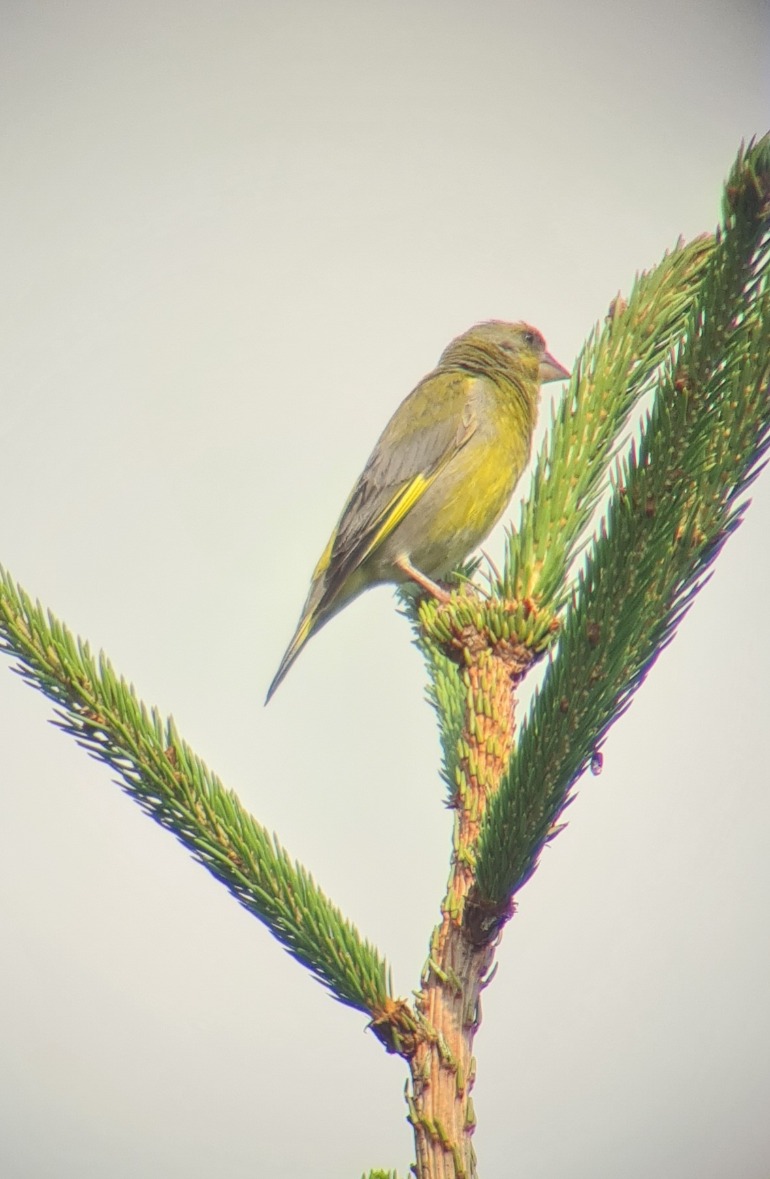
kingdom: Plantae
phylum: Tracheophyta
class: Liliopsida
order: Poales
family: Poaceae
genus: Chloris
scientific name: Chloris chloris
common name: Grønirisk
